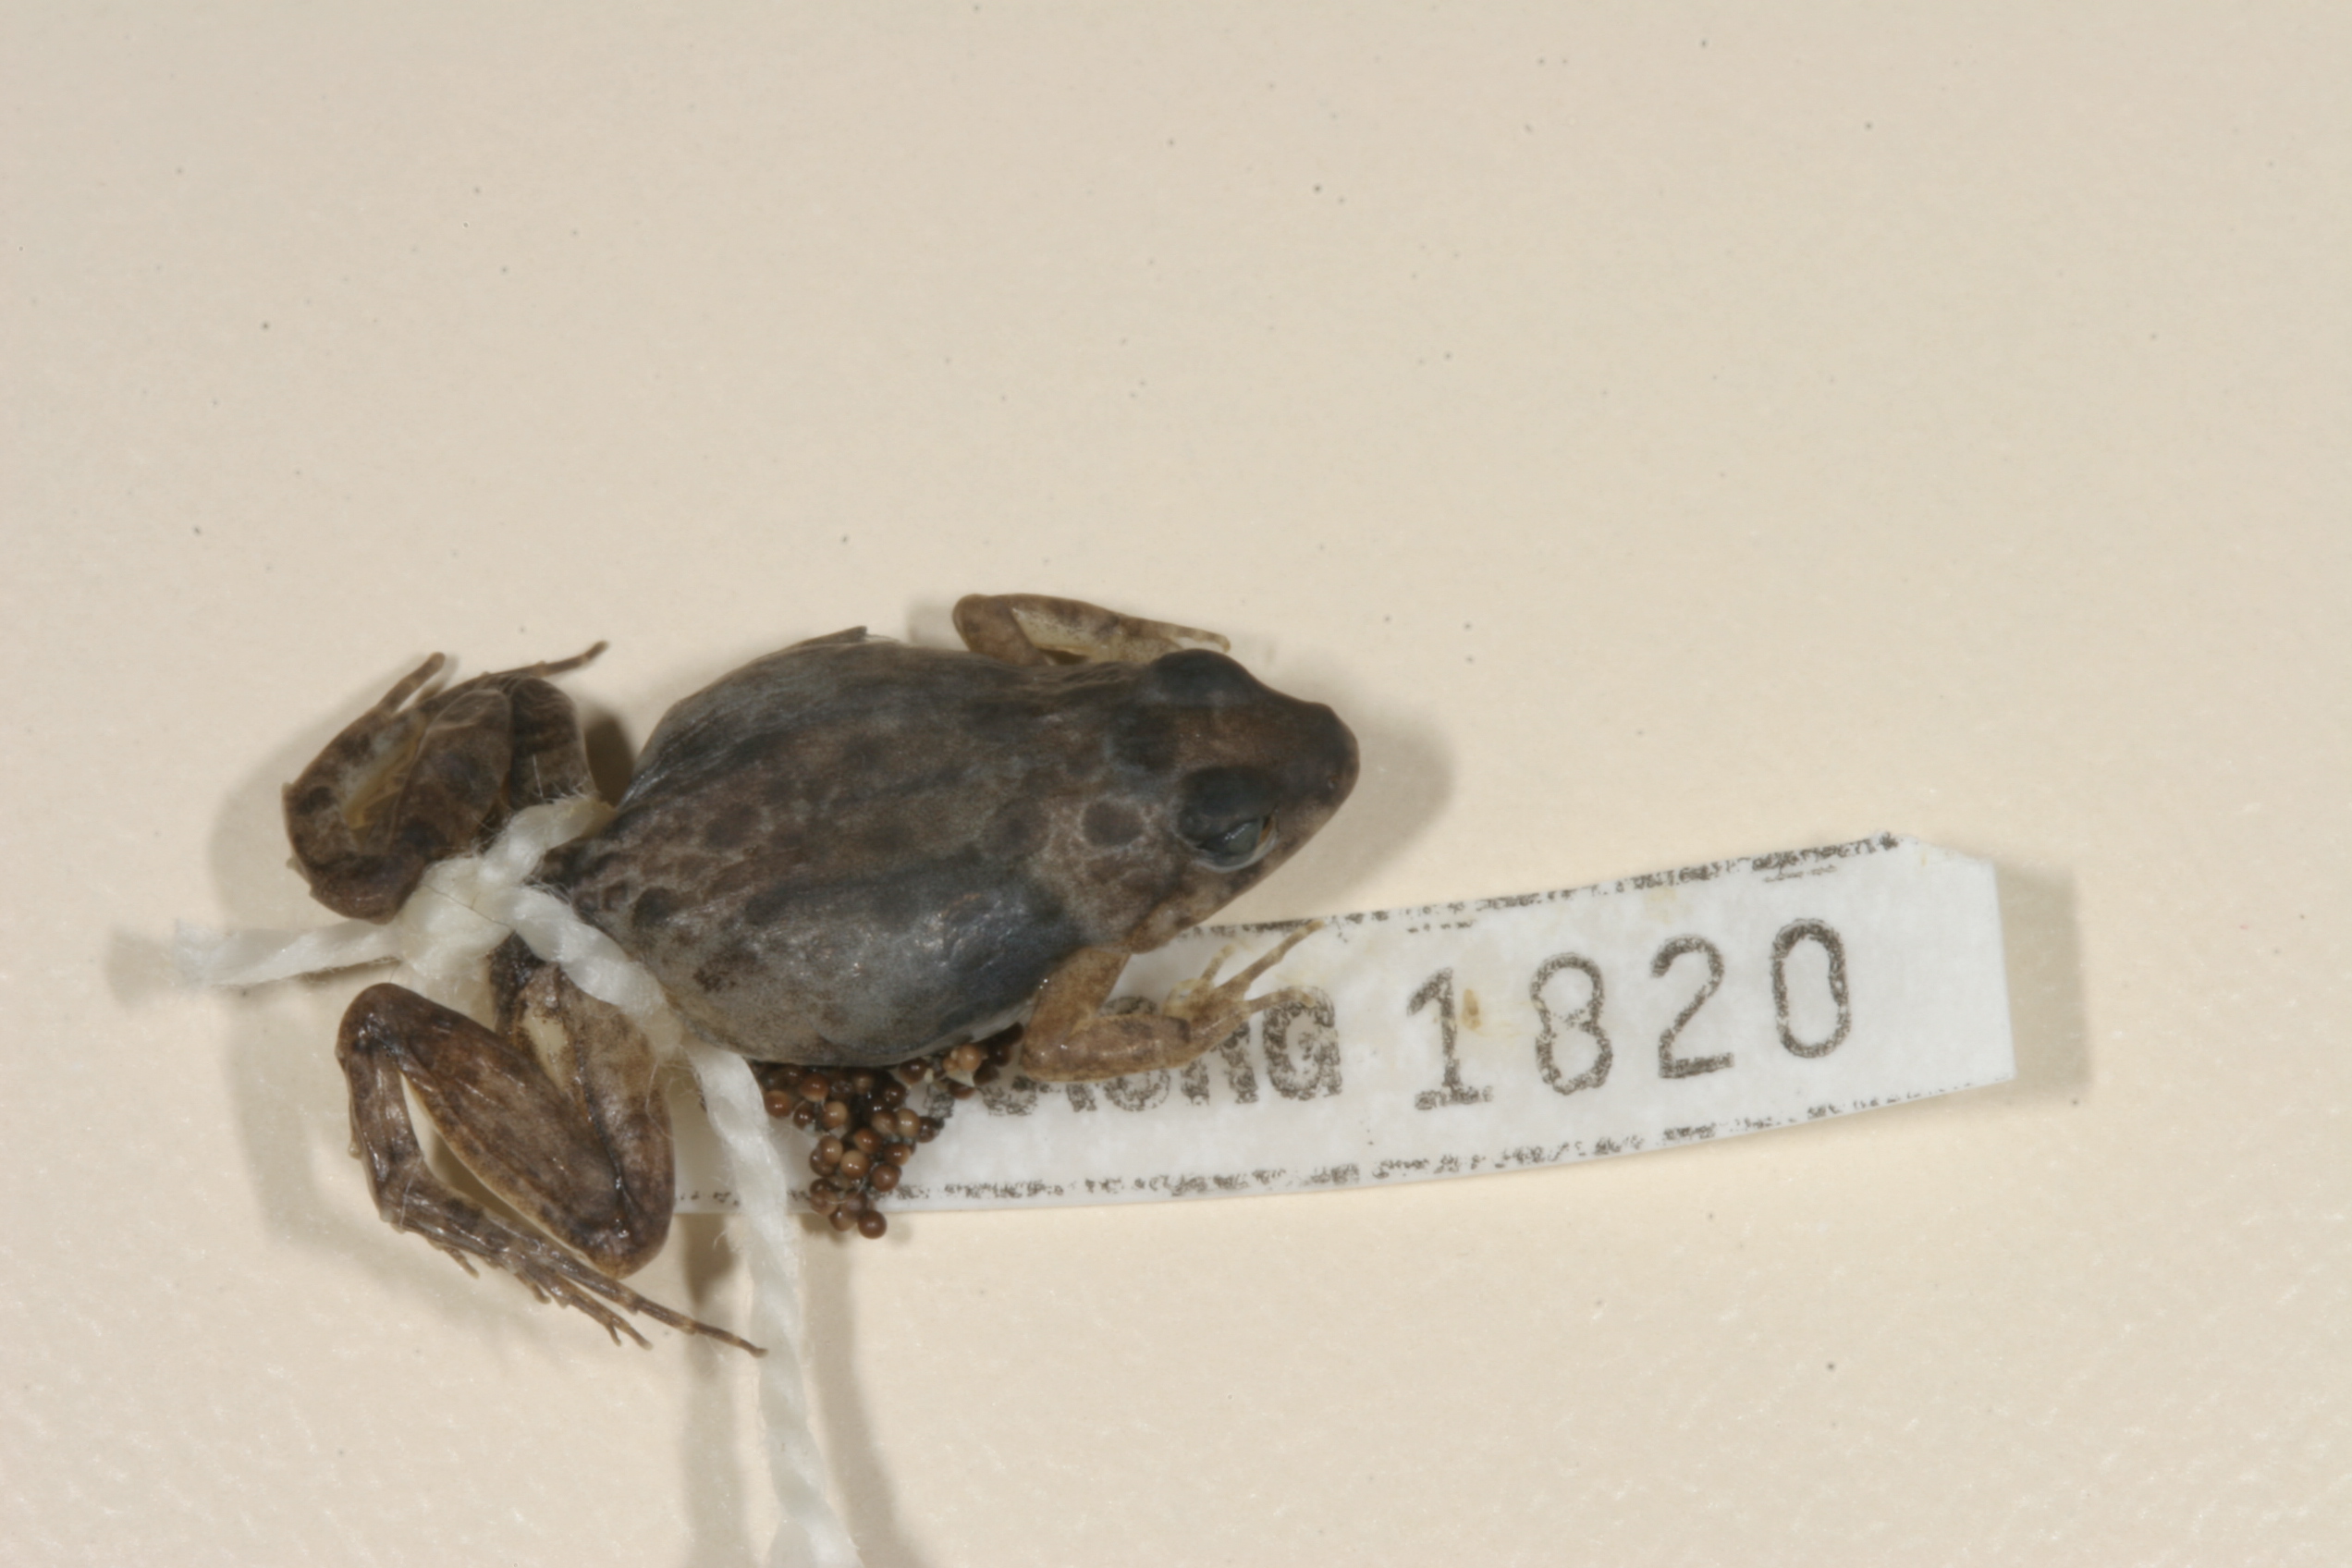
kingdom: Animalia
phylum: Chordata
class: Amphibia
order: Anura
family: Phrynobatrachidae
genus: Phrynobatrachus
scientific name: Phrynobatrachus mababiensis
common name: Dwarf puddle frog
